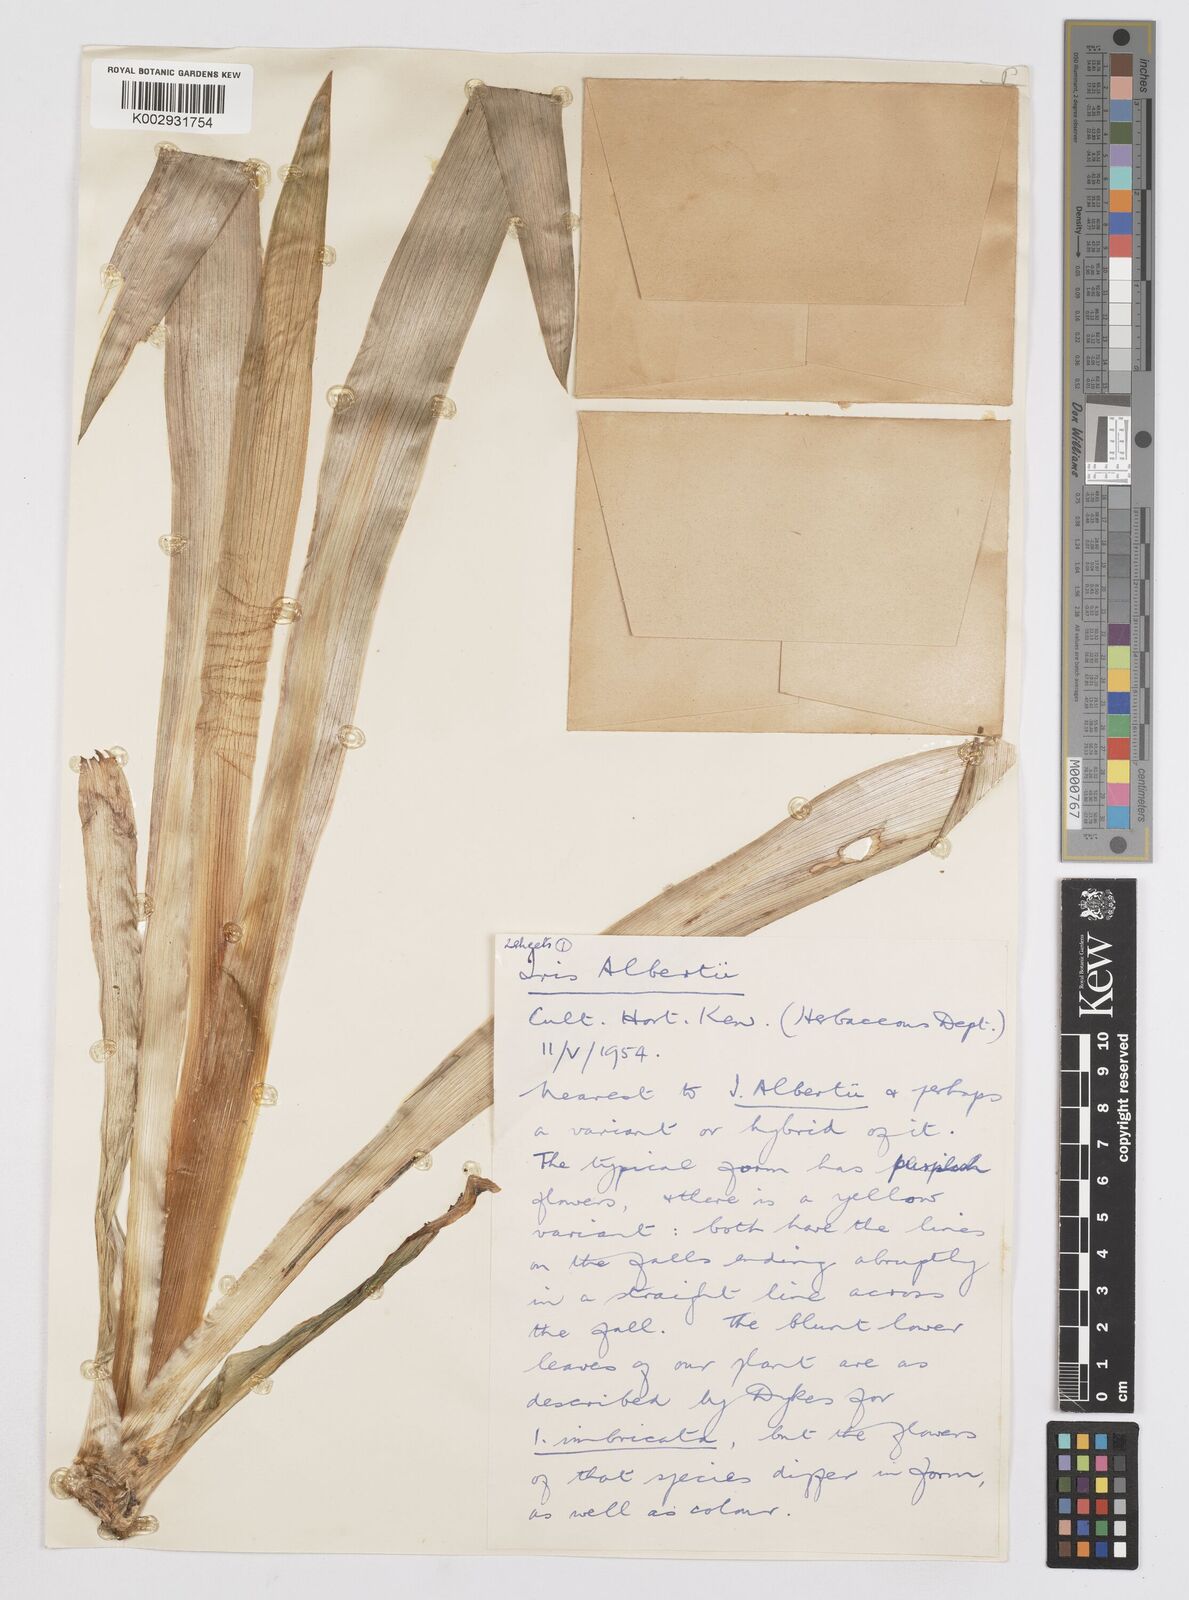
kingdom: Plantae
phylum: Tracheophyta
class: Liliopsida
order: Asparagales
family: Iridaceae
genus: Iris
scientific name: Iris alberti
